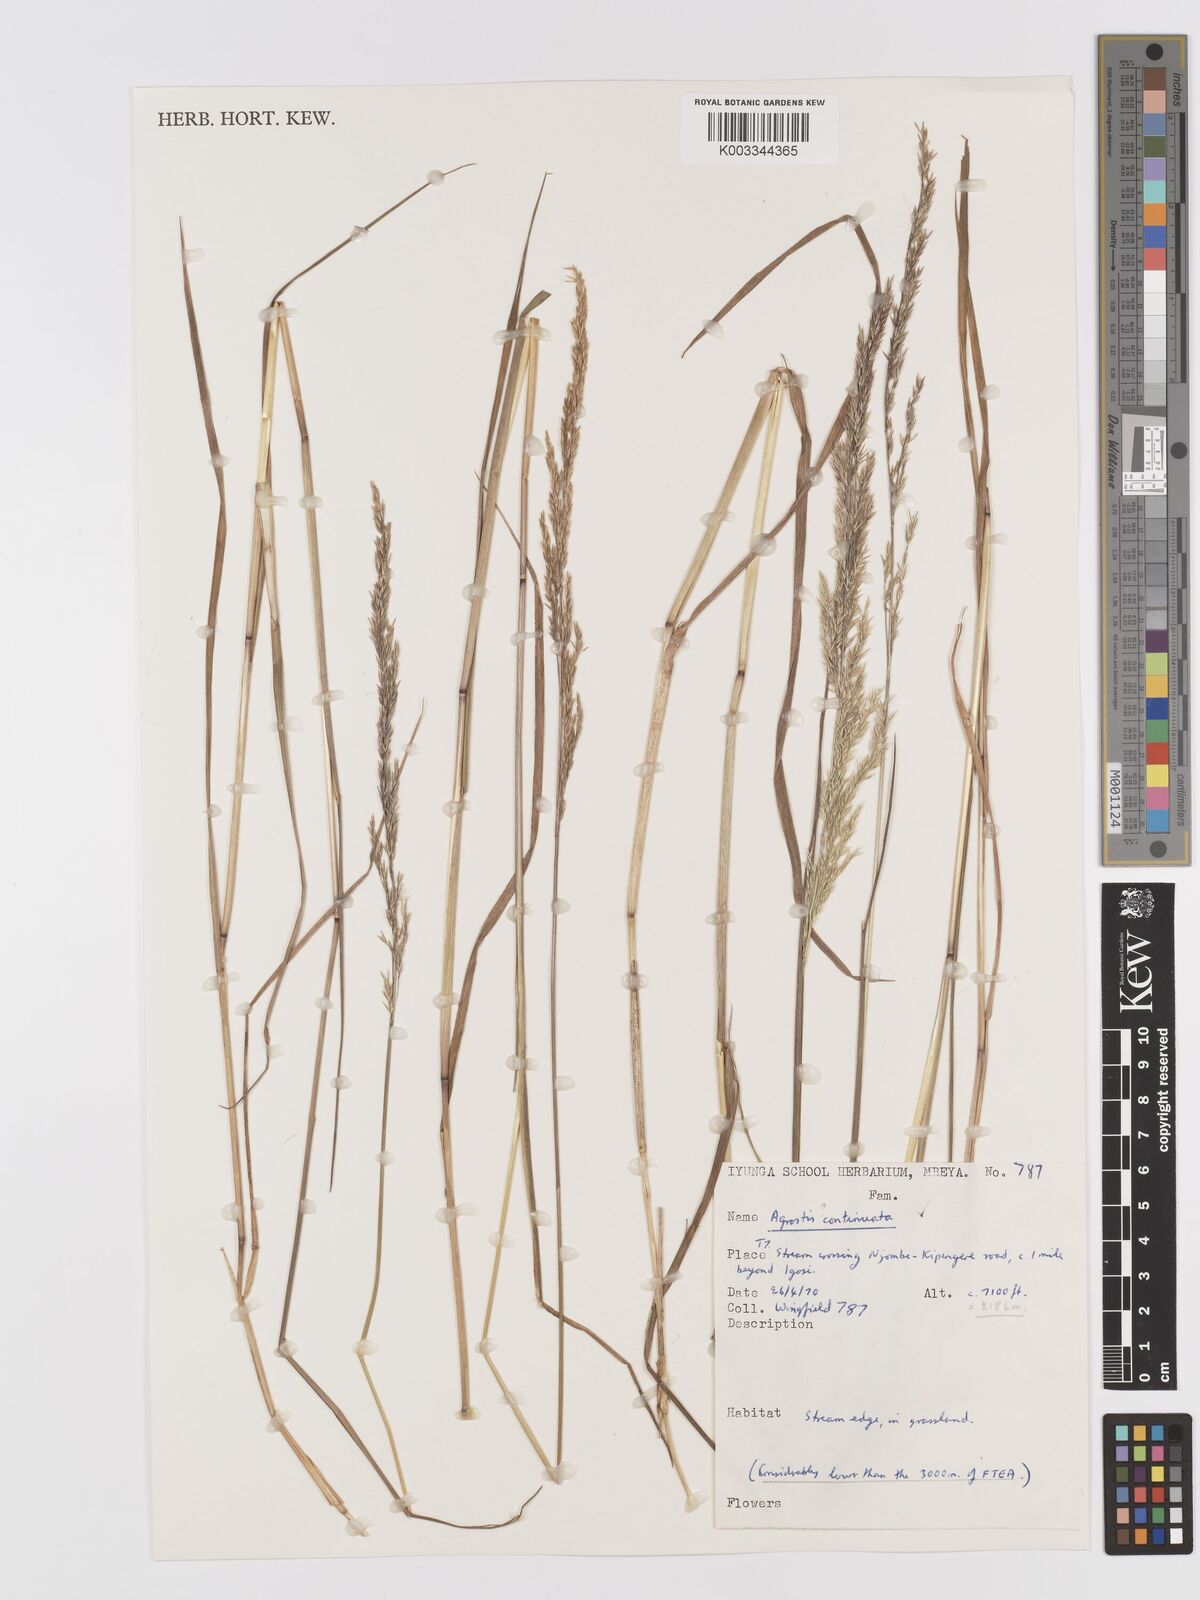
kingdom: Plantae
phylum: Tracheophyta
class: Liliopsida
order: Poales
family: Poaceae
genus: Agrostis
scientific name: Agrostis continuata
